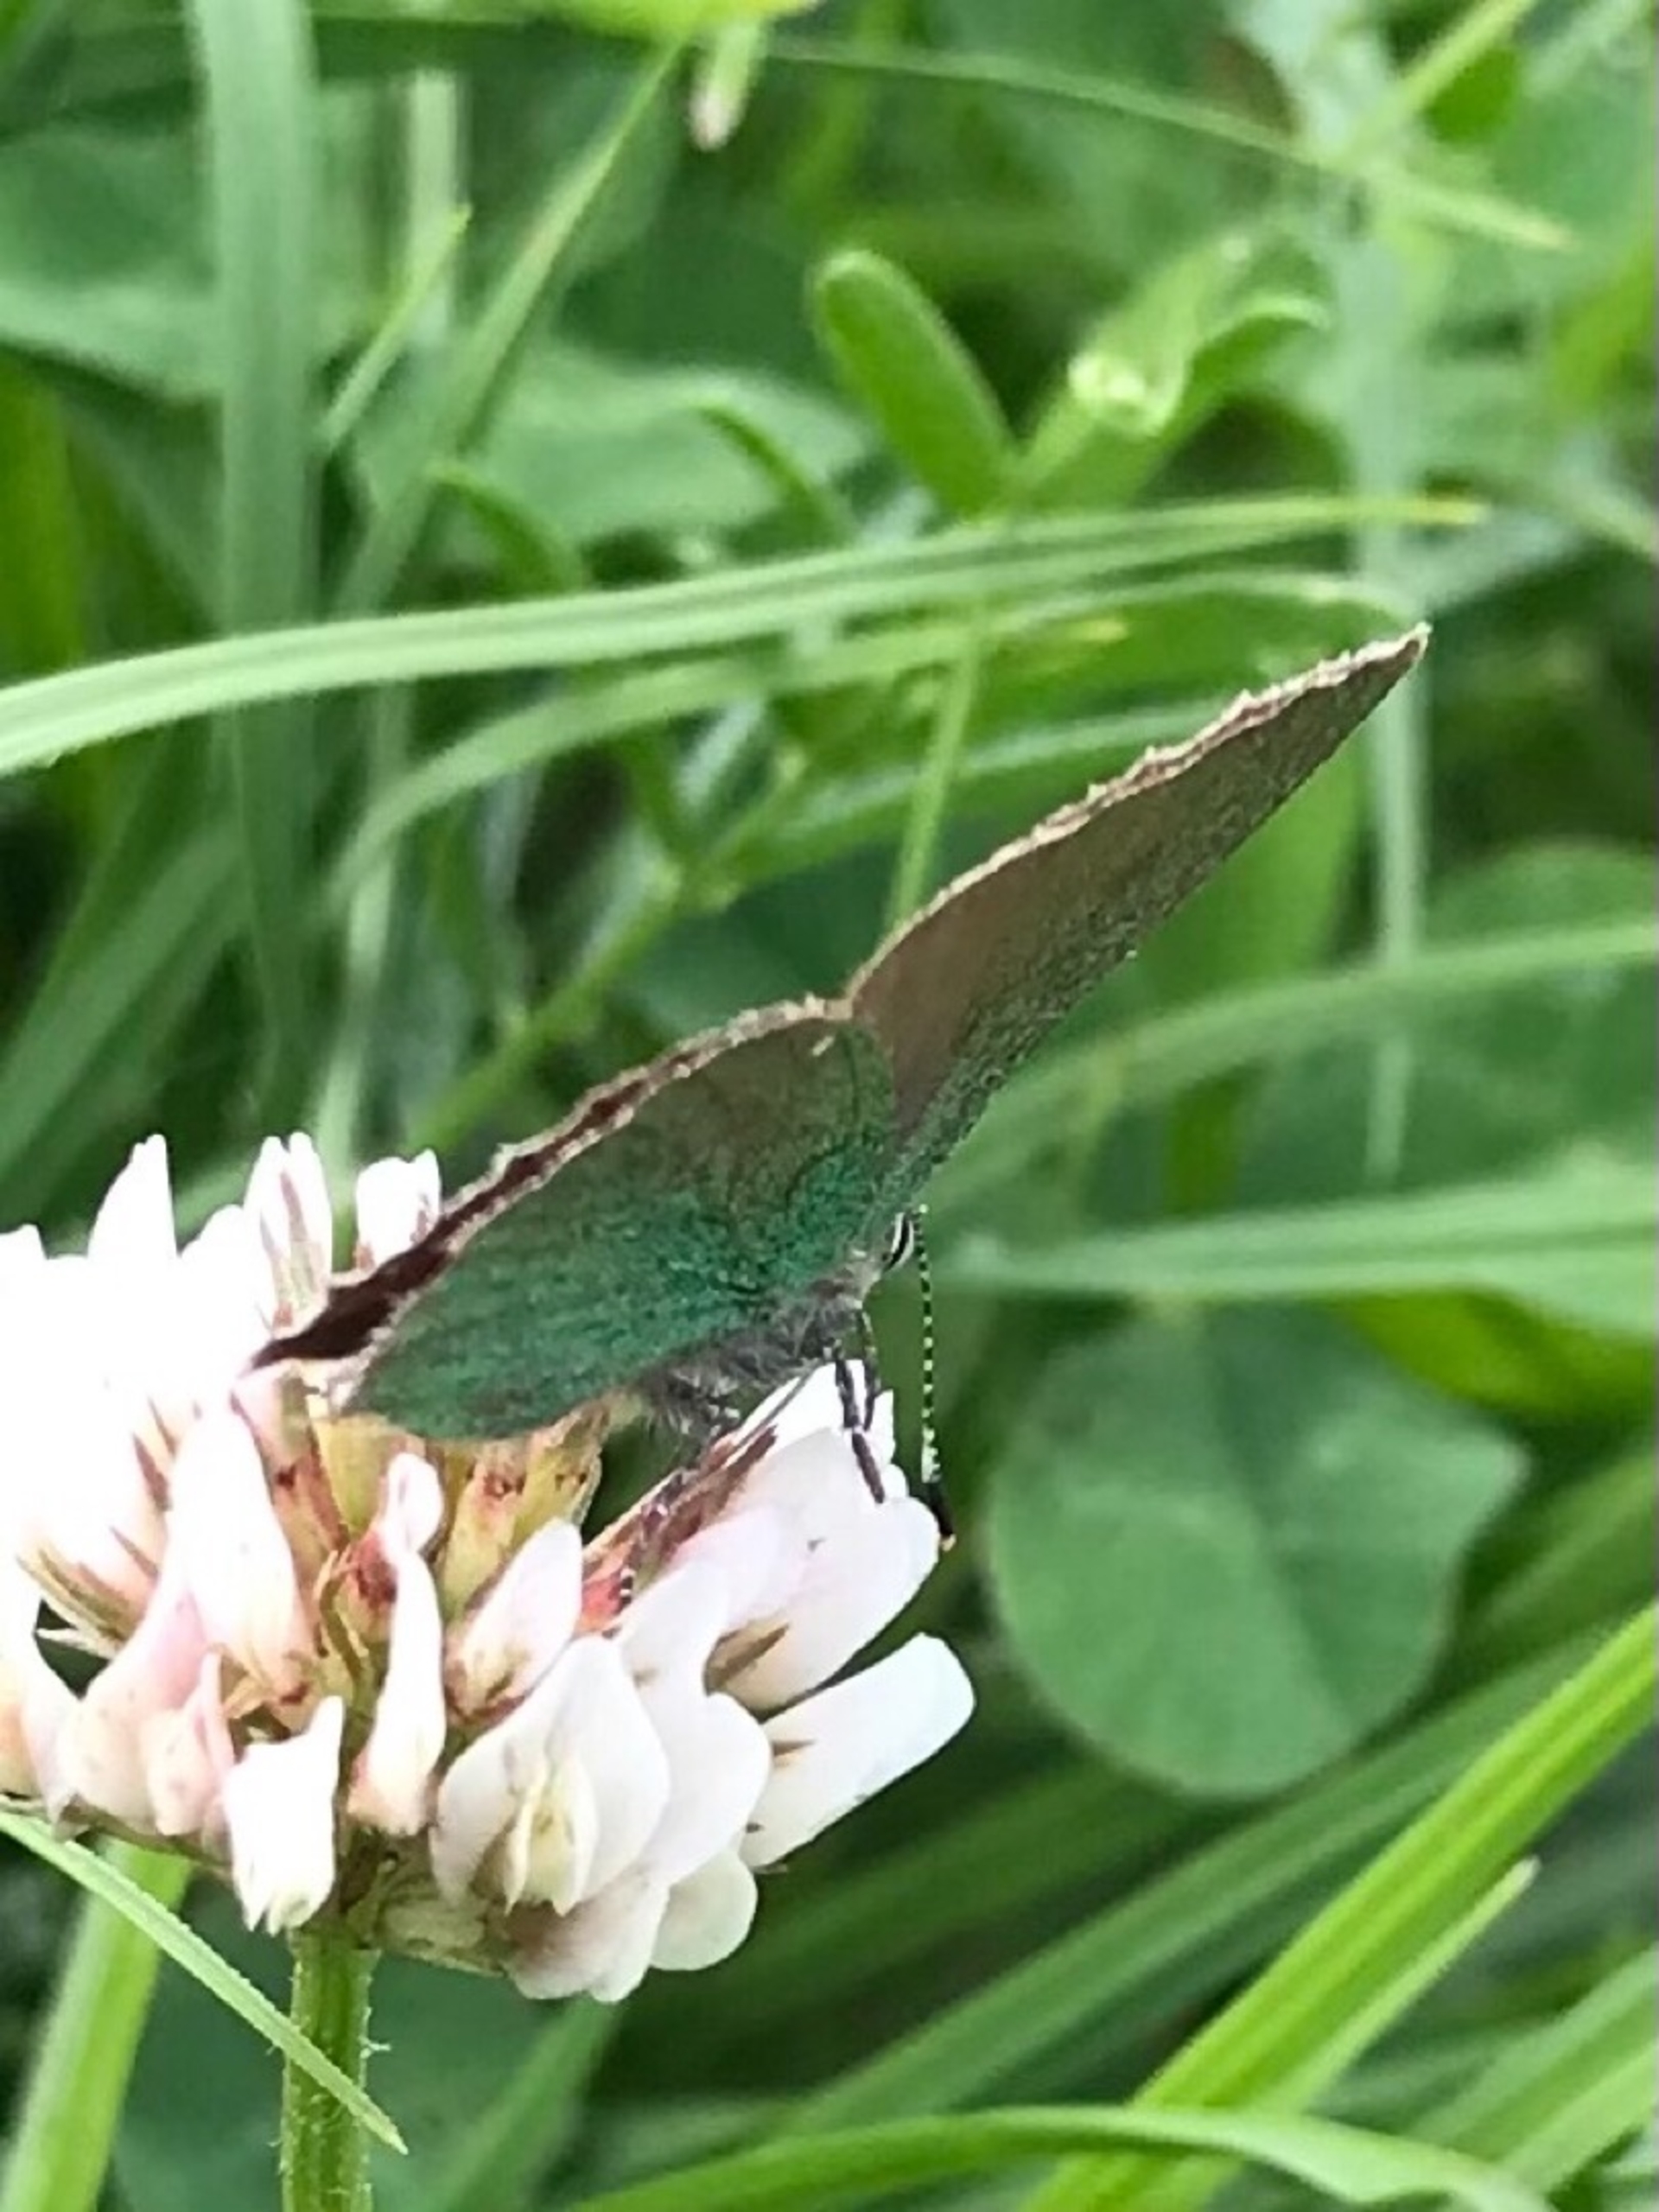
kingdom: Animalia
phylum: Arthropoda
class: Insecta
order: Lepidoptera
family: Lycaenidae
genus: Callophrys
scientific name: Callophrys rubi
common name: Grøn busksommerfugl
